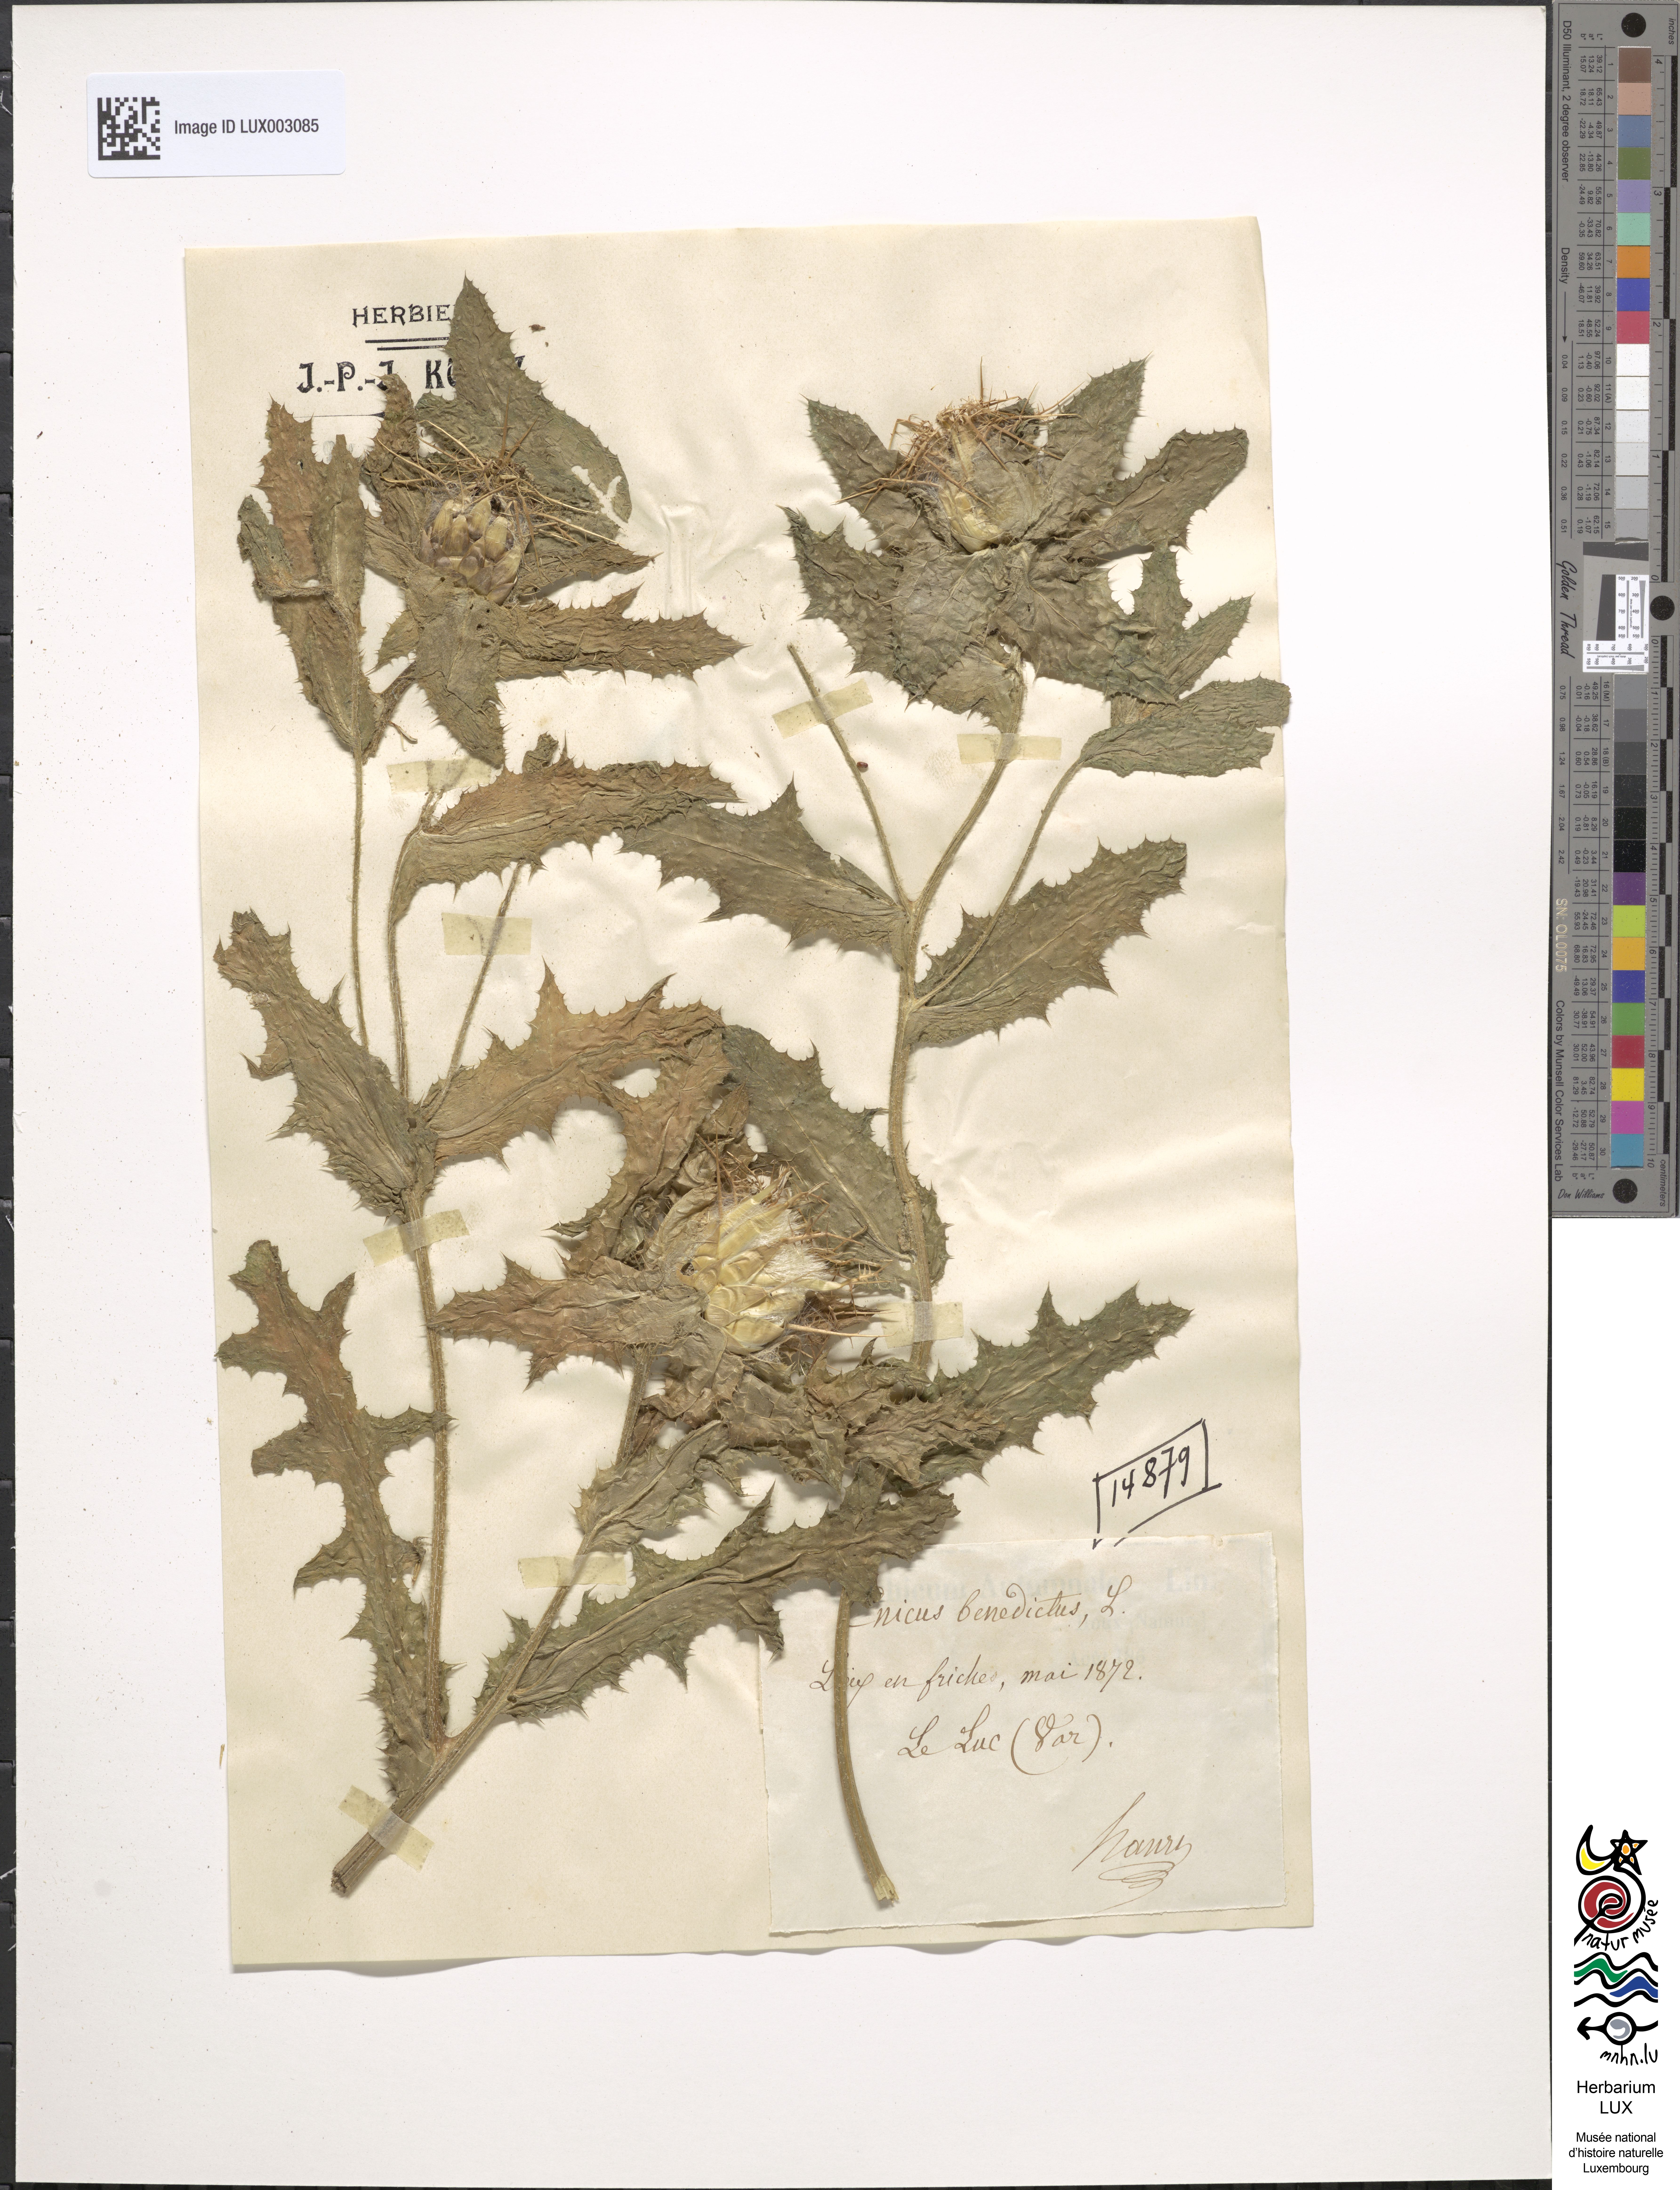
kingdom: Plantae
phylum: Tracheophyta
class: Magnoliopsida
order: Asterales
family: Asteraceae
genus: Centaurea
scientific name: Centaurea benedicta
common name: Blessed thistle
